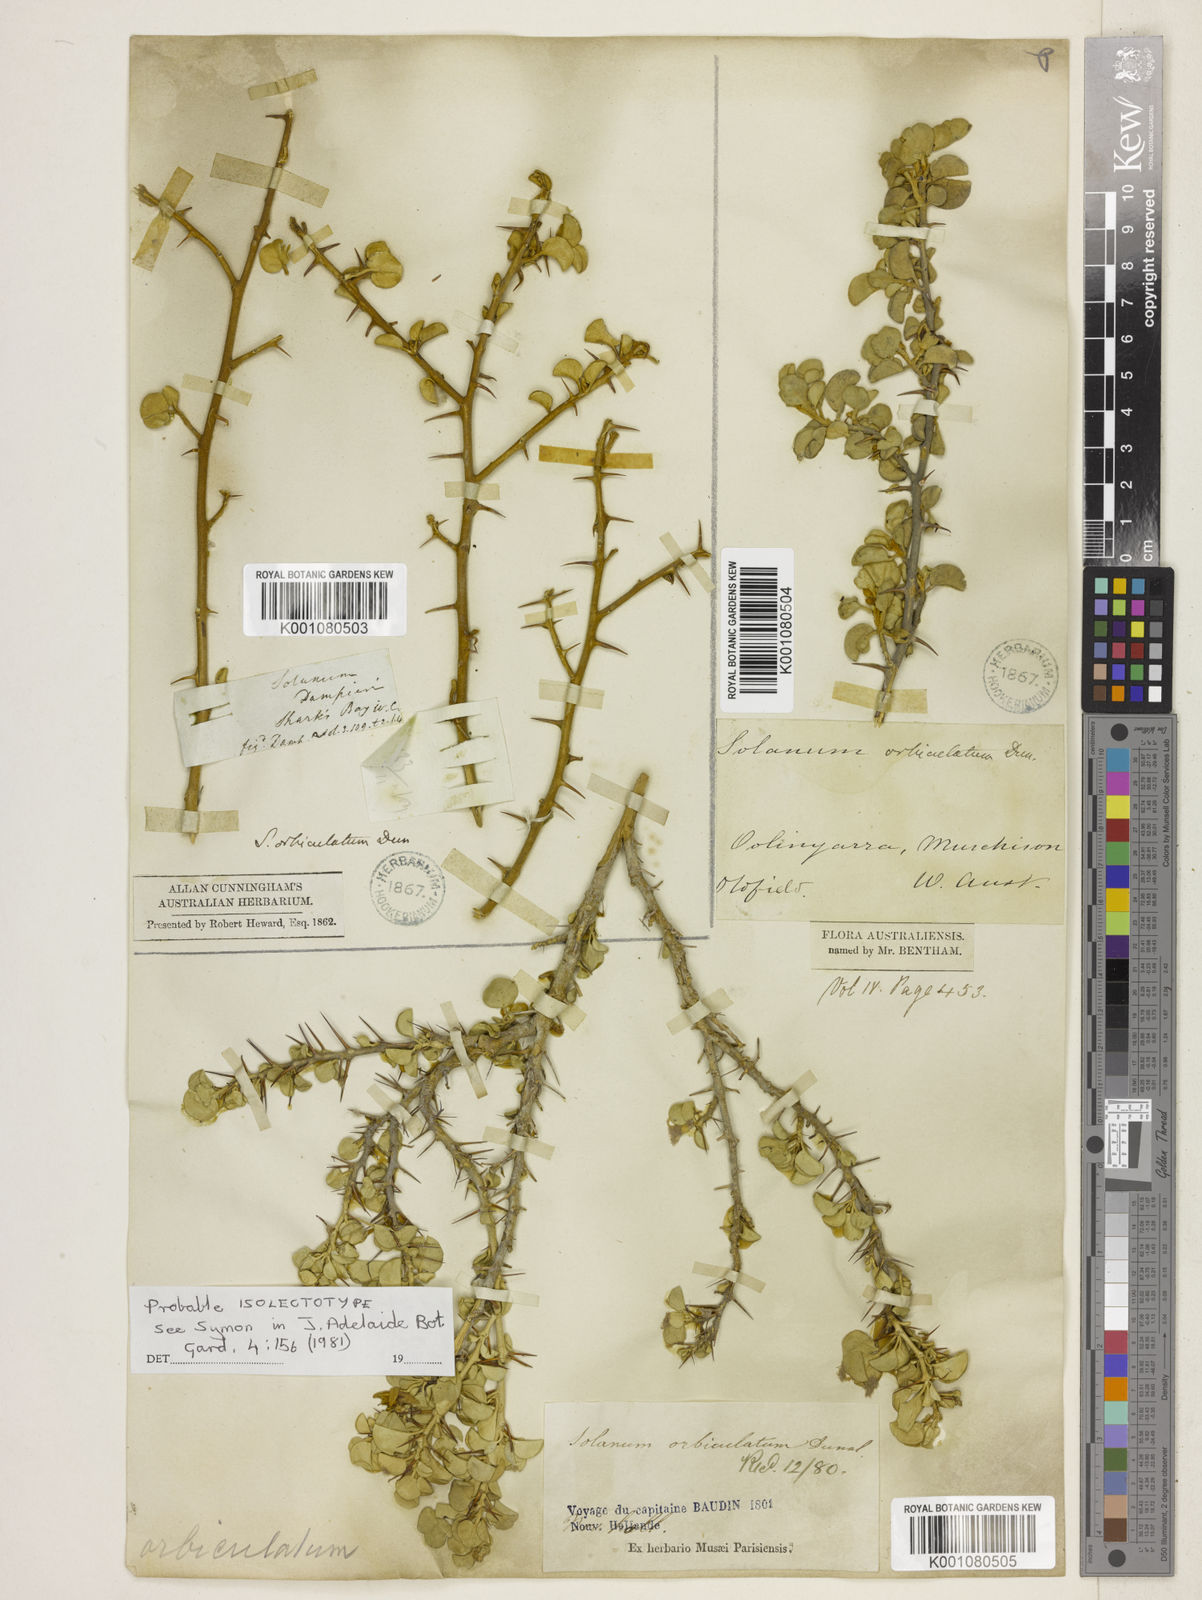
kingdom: Plantae
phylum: Tracheophyta
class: Magnoliopsida
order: Solanales
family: Solanaceae
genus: Solanum
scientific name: Solanum orbiculatum
